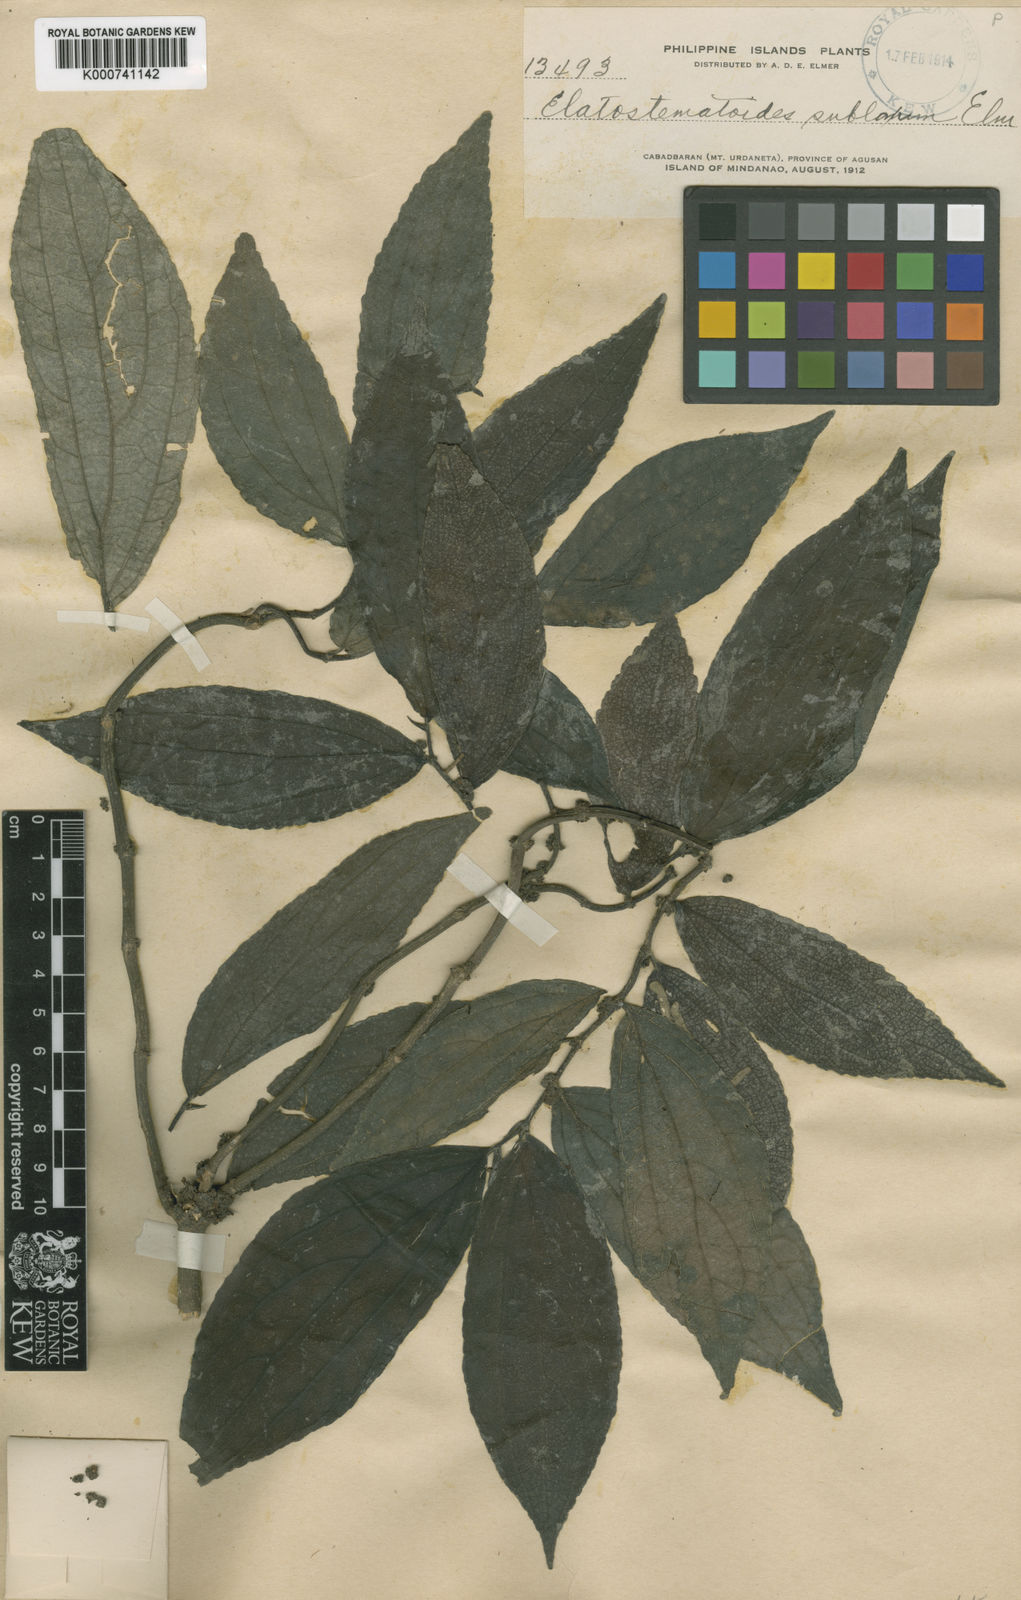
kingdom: Plantae
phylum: Tracheophyta
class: Magnoliopsida
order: Rosales
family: Urticaceae
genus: Elatostematoides
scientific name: Elatostematoides sublaxum
